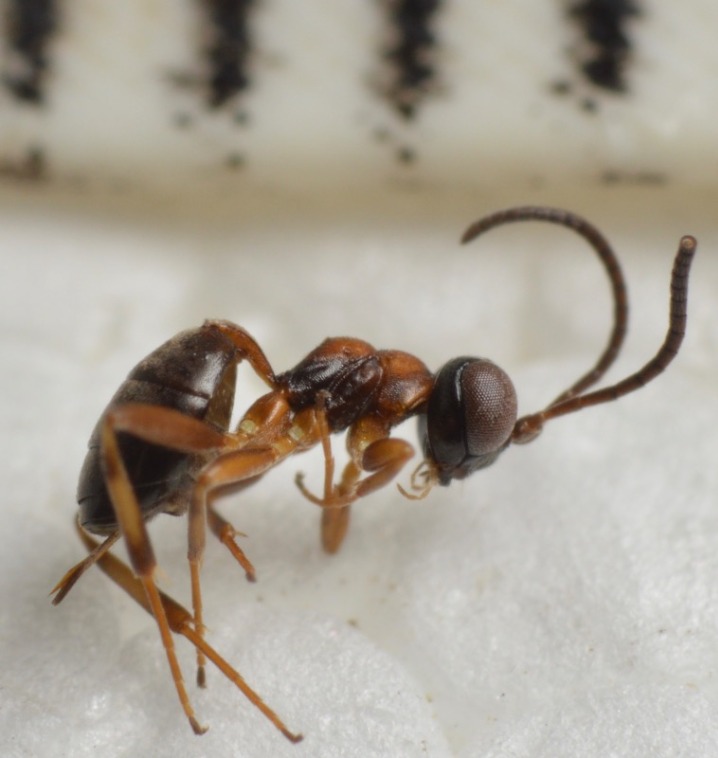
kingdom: Animalia
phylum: Arthropoda
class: Insecta
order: Hymenoptera
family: Ichneumonidae
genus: Gelis
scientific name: Gelis bicolor
